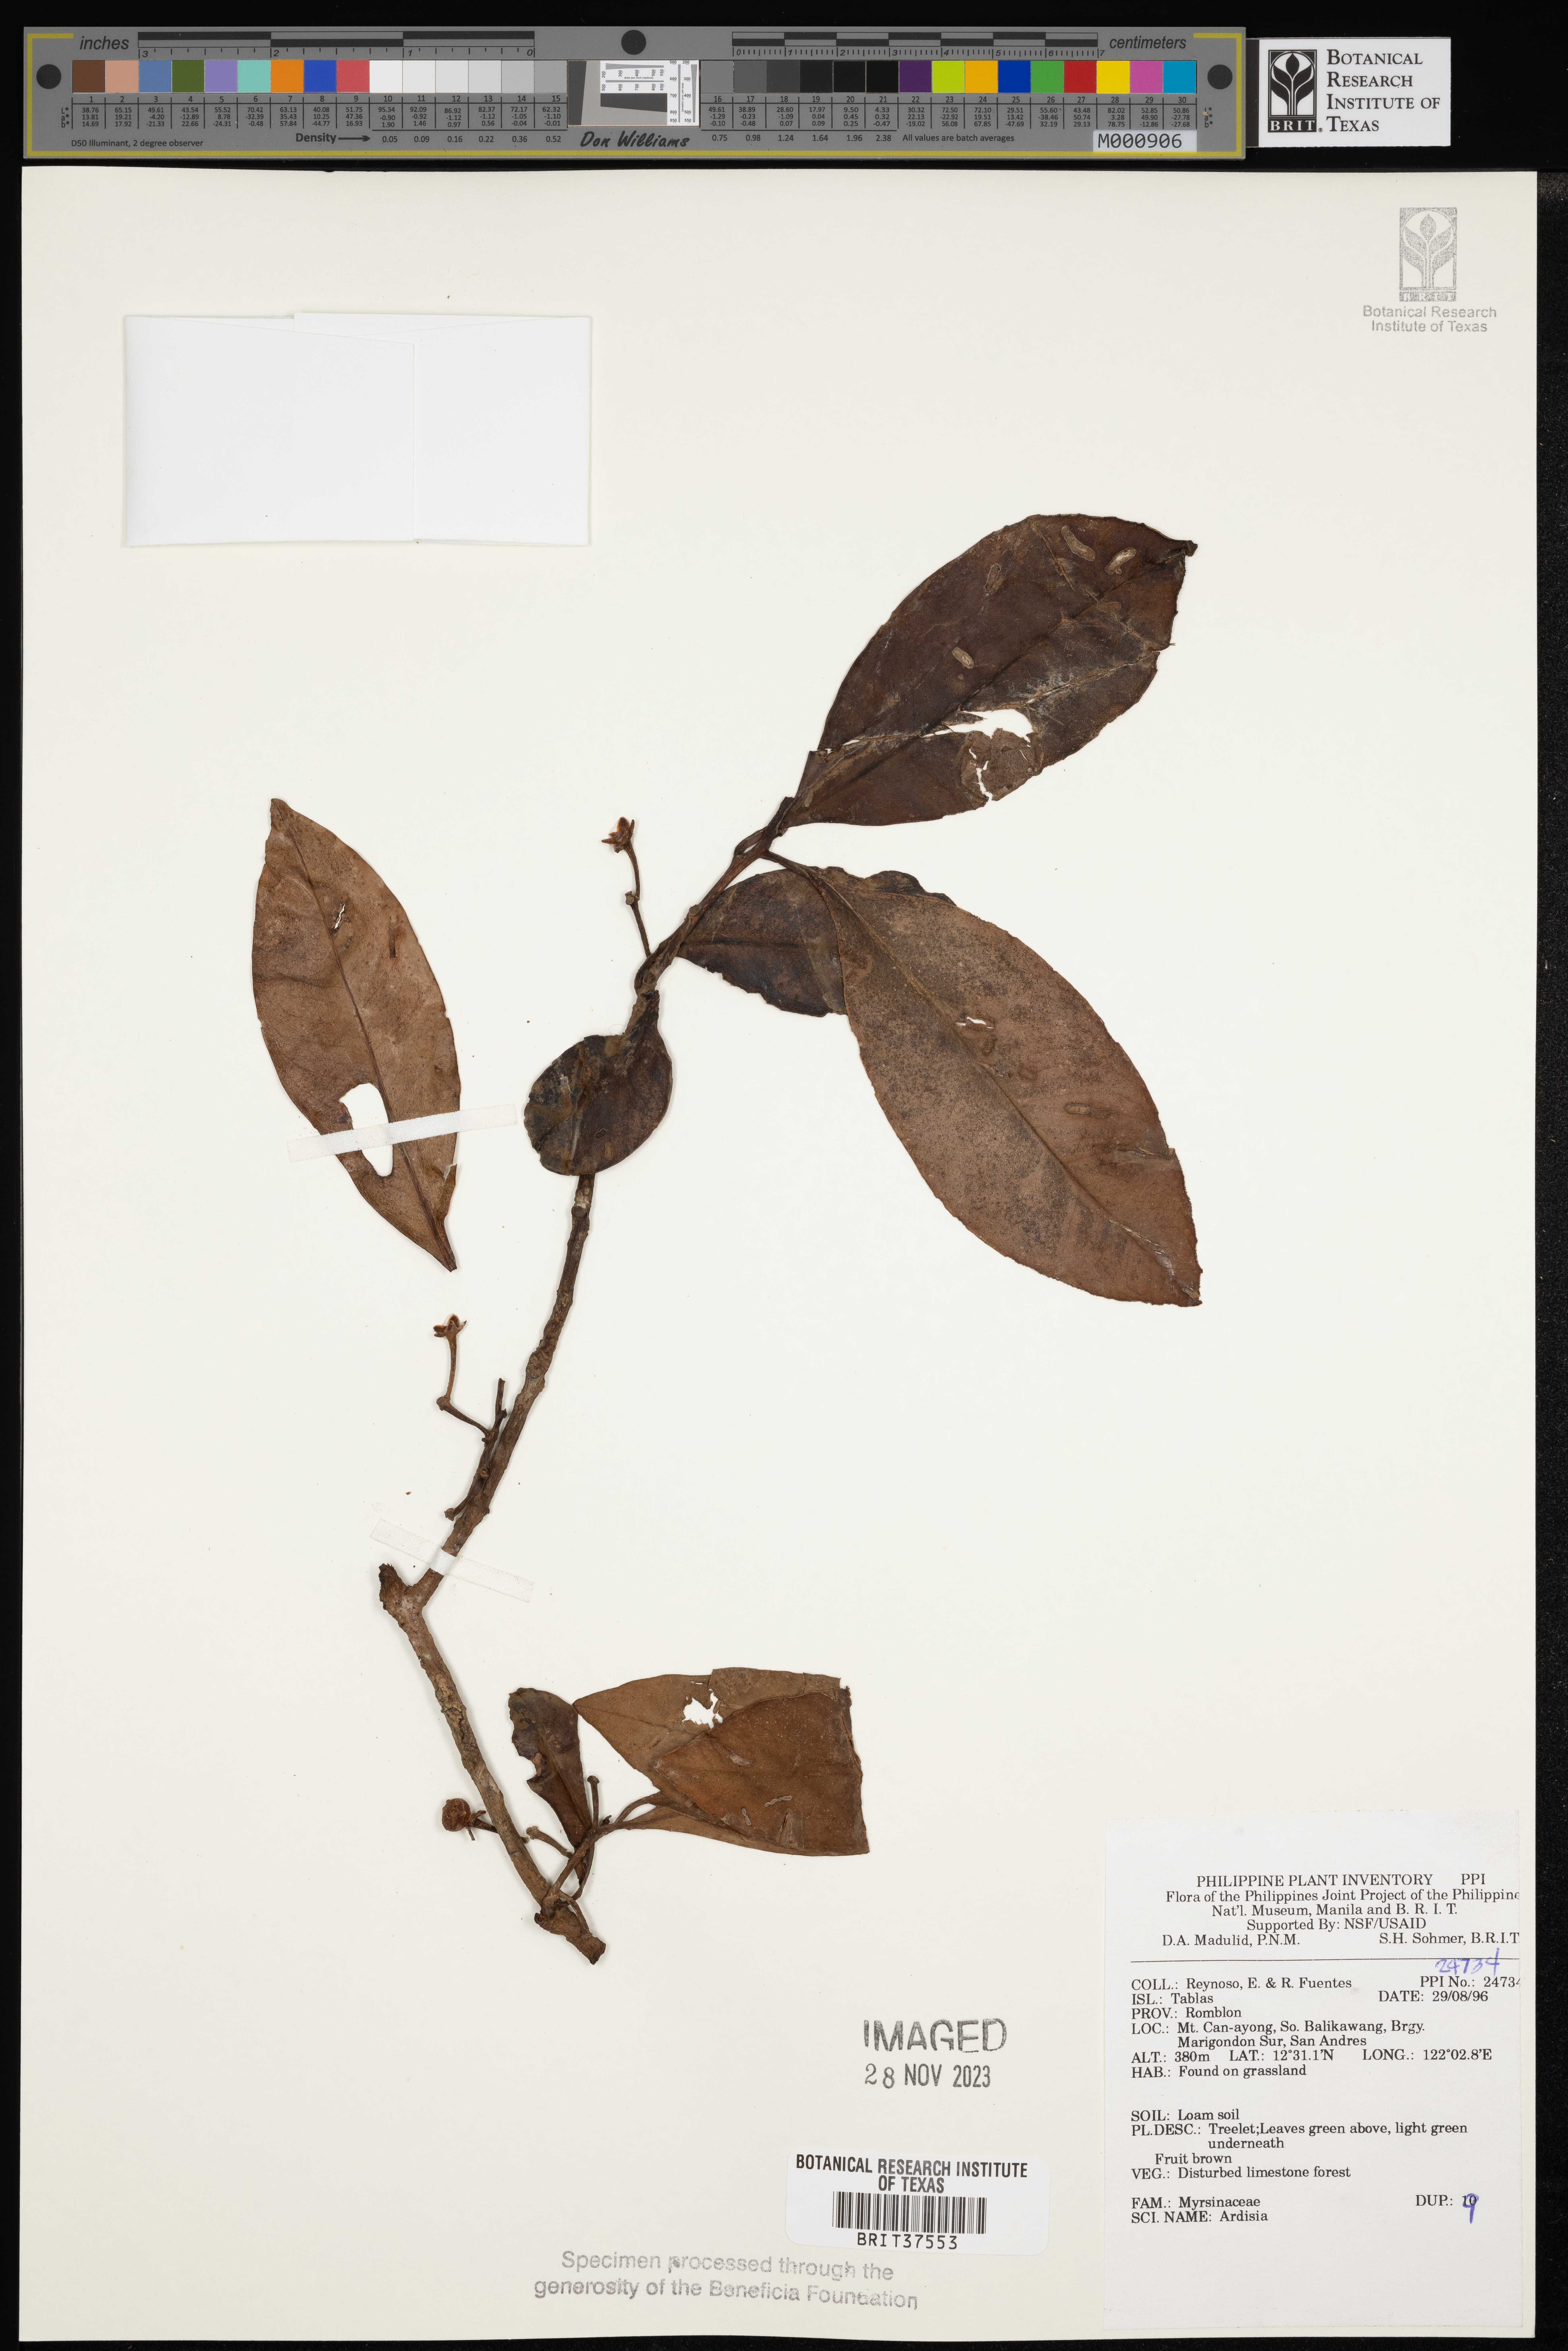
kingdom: Plantae
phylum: Tracheophyta
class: Magnoliopsida
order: Ericales
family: Primulaceae
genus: Ardisia
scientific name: Ardisia
